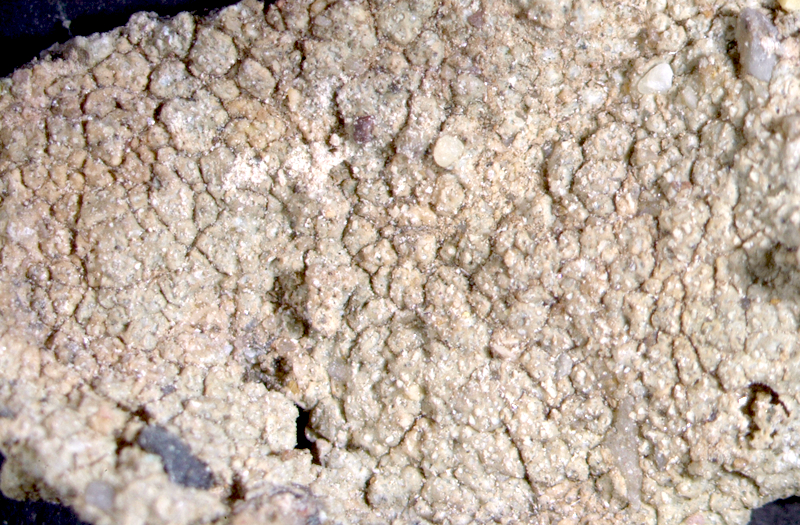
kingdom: Fungi
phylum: Ascomycota
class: Lecanoromycetes
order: Teloschistales
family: Teloschistaceae
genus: Caloplaca
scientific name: Caloplaca
